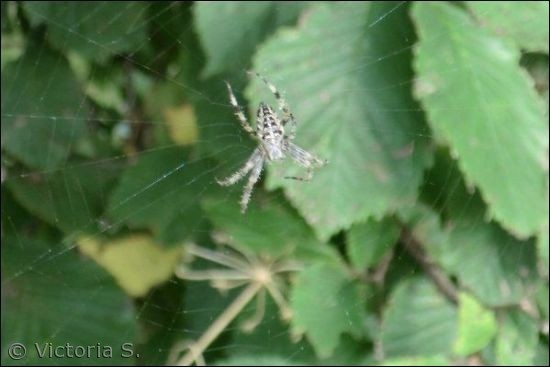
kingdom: Animalia
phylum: Arthropoda
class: Arachnida
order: Araneae
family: Araneidae
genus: Araneus
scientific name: Araneus diadematus
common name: Korsedderkop
